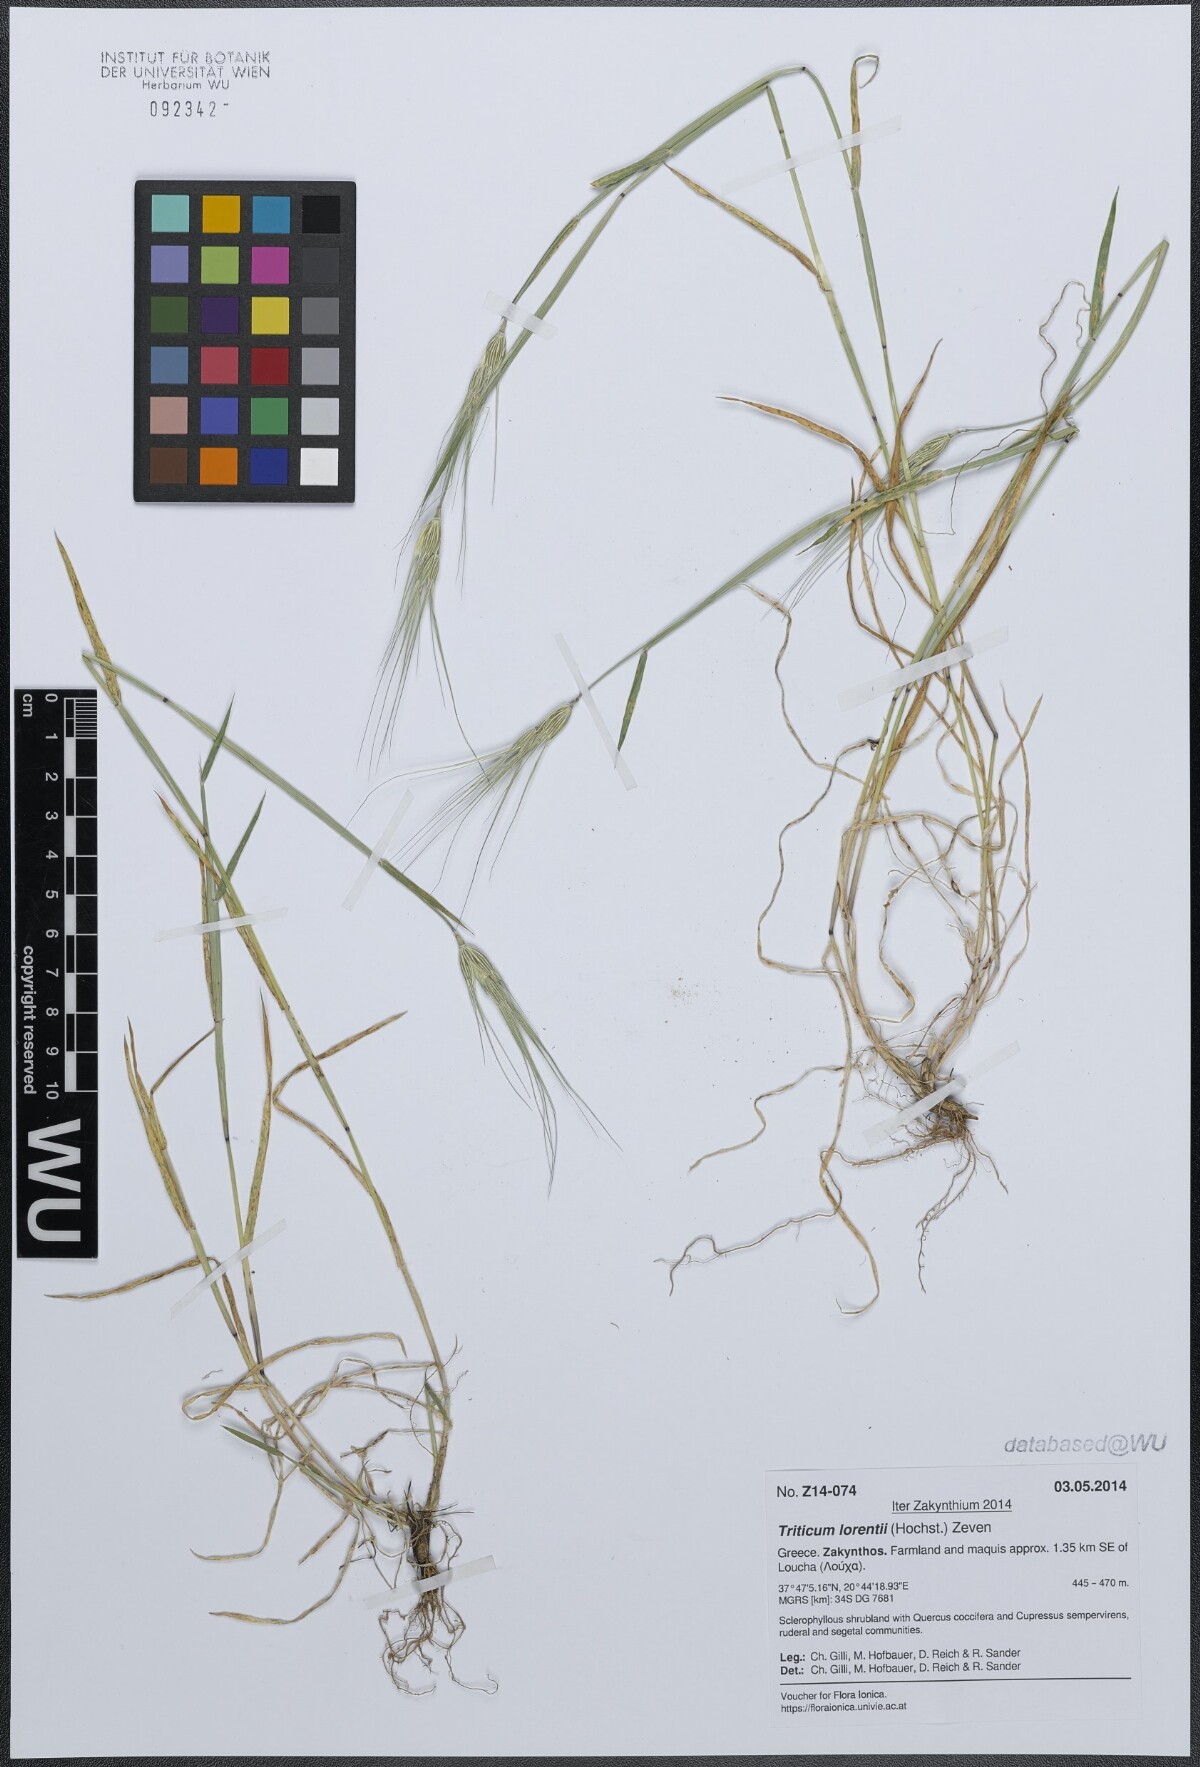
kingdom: Plantae
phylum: Tracheophyta
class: Liliopsida
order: Poales
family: Poaceae
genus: Aegilops
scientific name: Aegilops biuncialis
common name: Mediterranean aegilops
